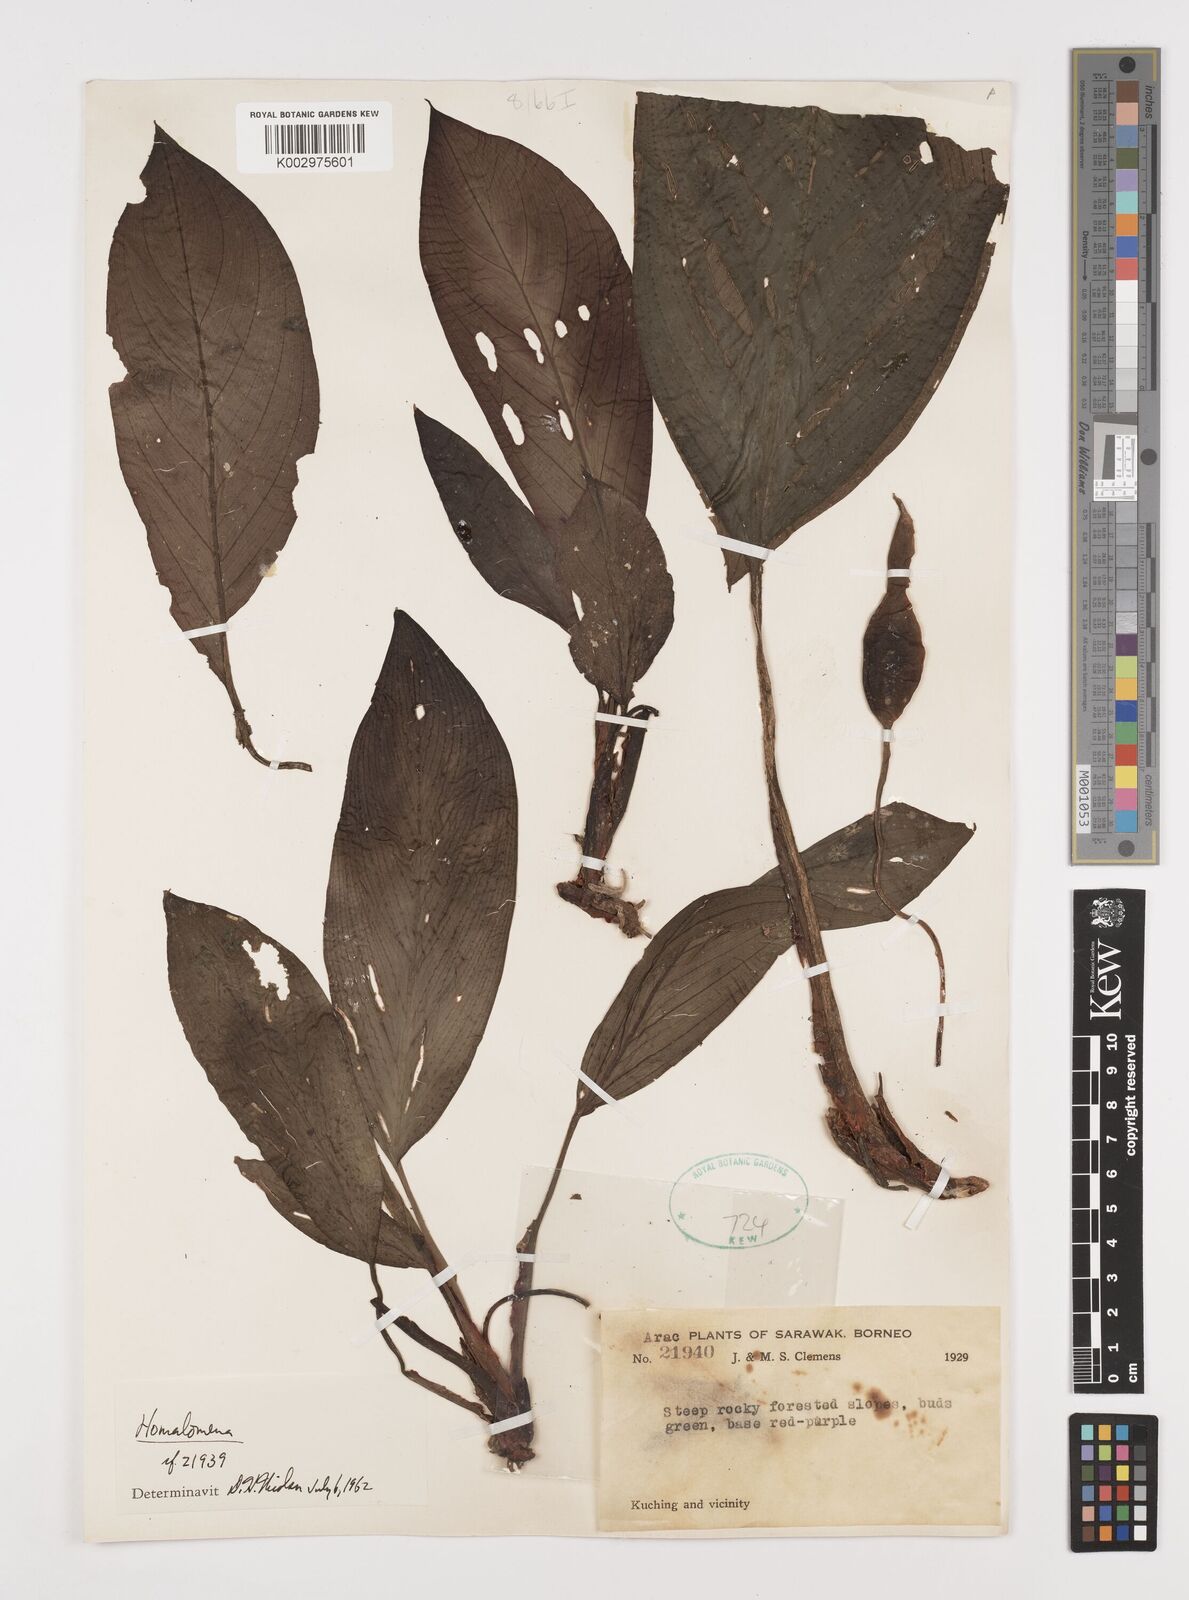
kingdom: Plantae
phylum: Tracheophyta
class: Liliopsida
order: Alismatales
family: Araceae
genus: Homalomena
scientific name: Homalomena
